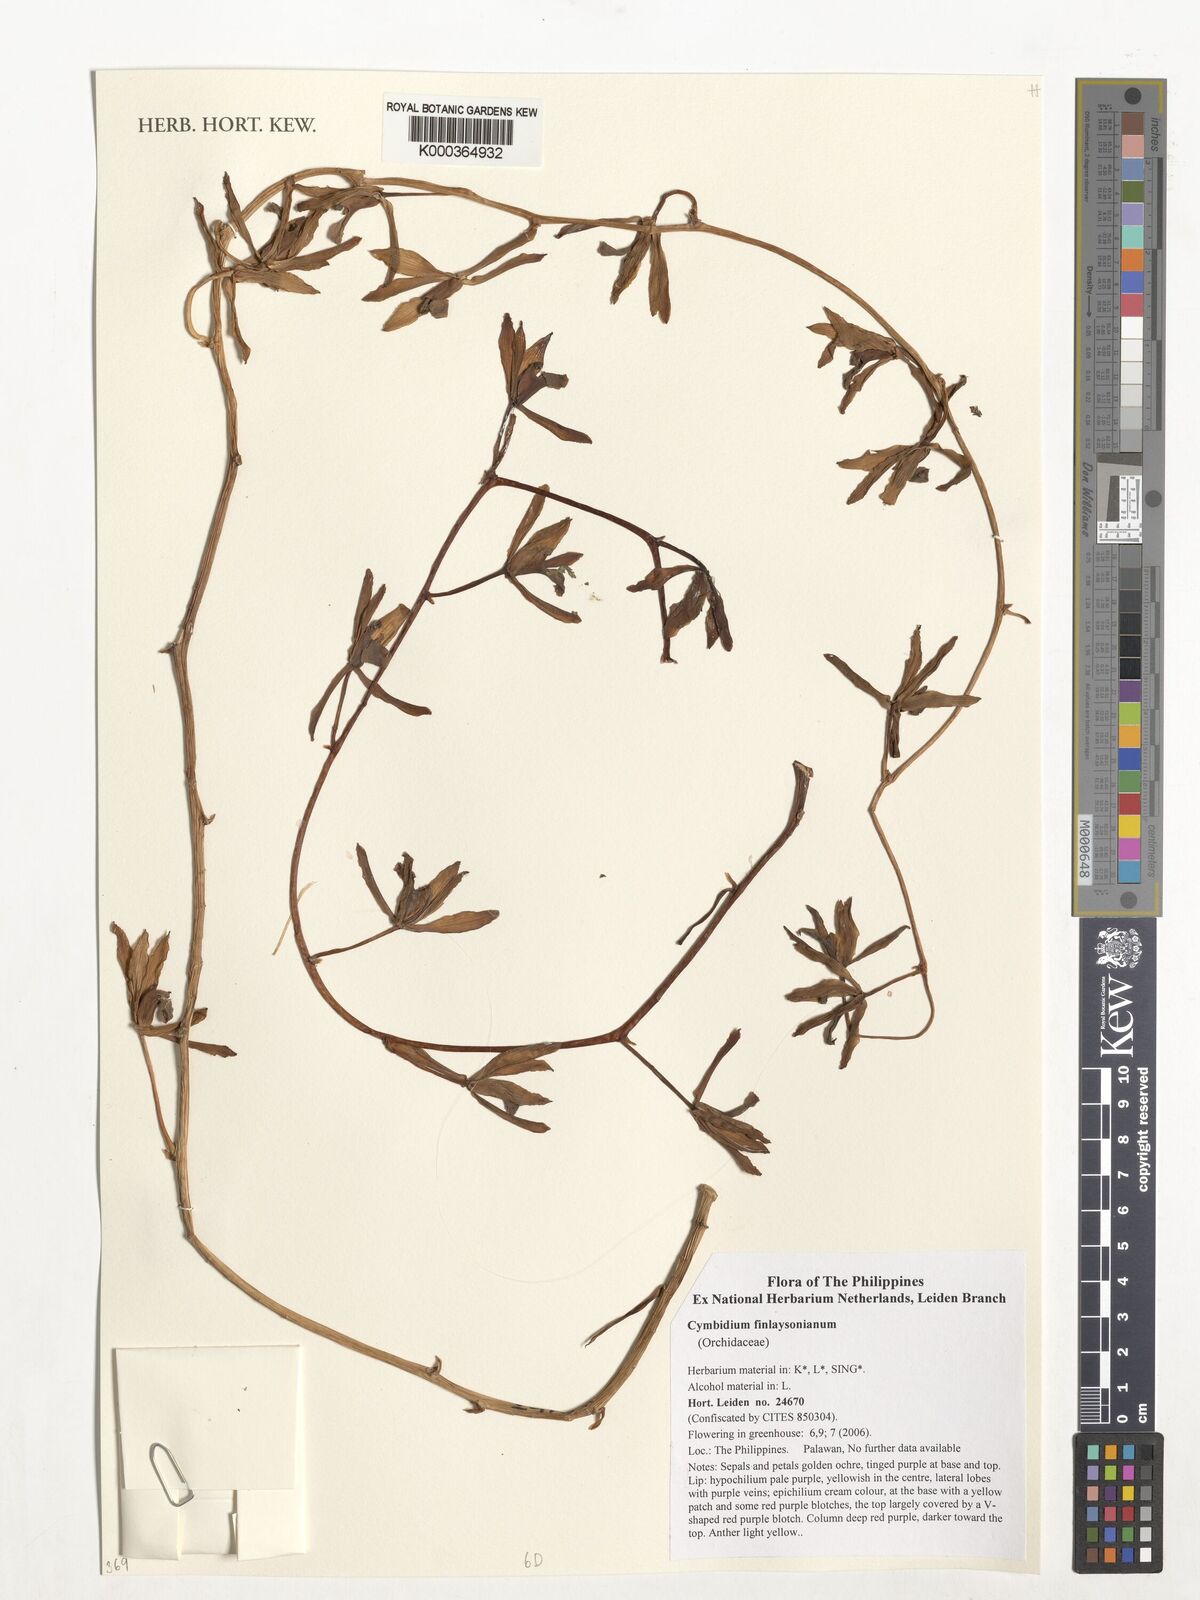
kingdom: Plantae
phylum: Tracheophyta
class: Liliopsida
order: Asparagales
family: Orchidaceae
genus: Cymbidium
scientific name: Cymbidium finlaysonianum
